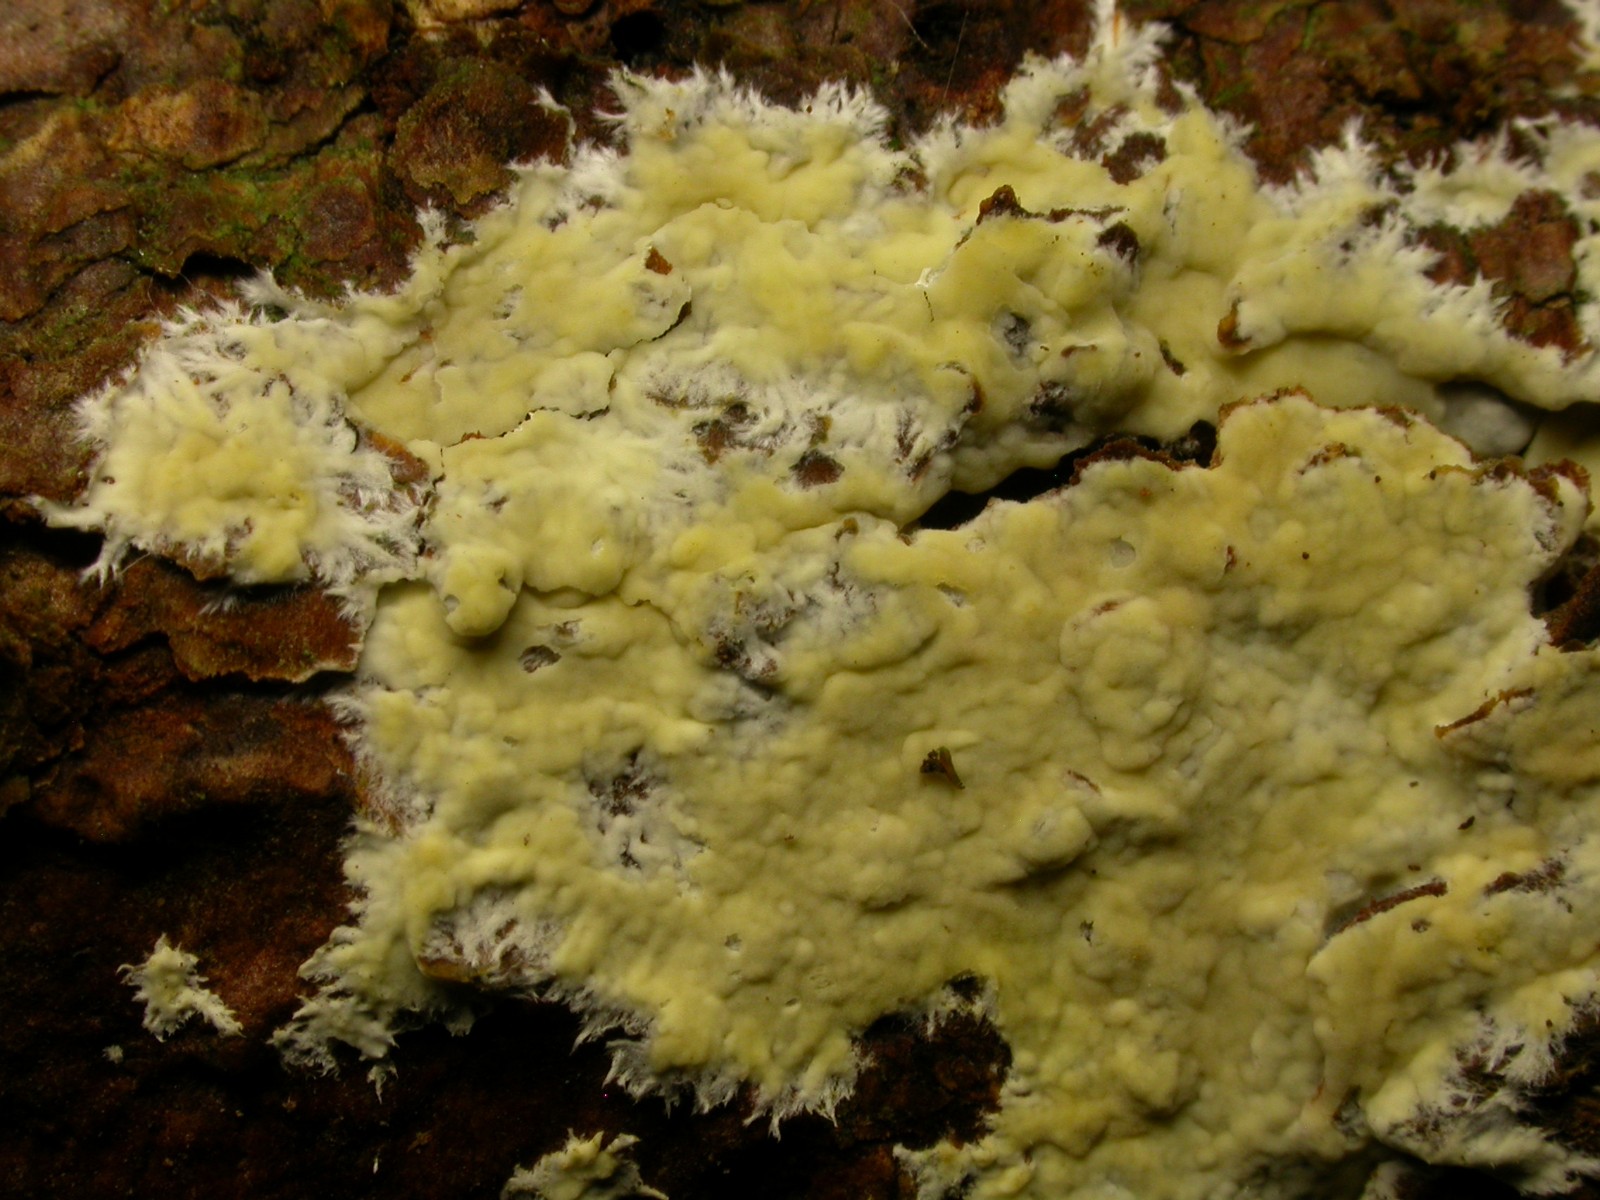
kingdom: Fungi
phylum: Basidiomycota
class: Agaricomycetes
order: Russulales
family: Peniophoraceae
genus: Gloiothele
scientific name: Gloiothele citrina
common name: citronskorpe
